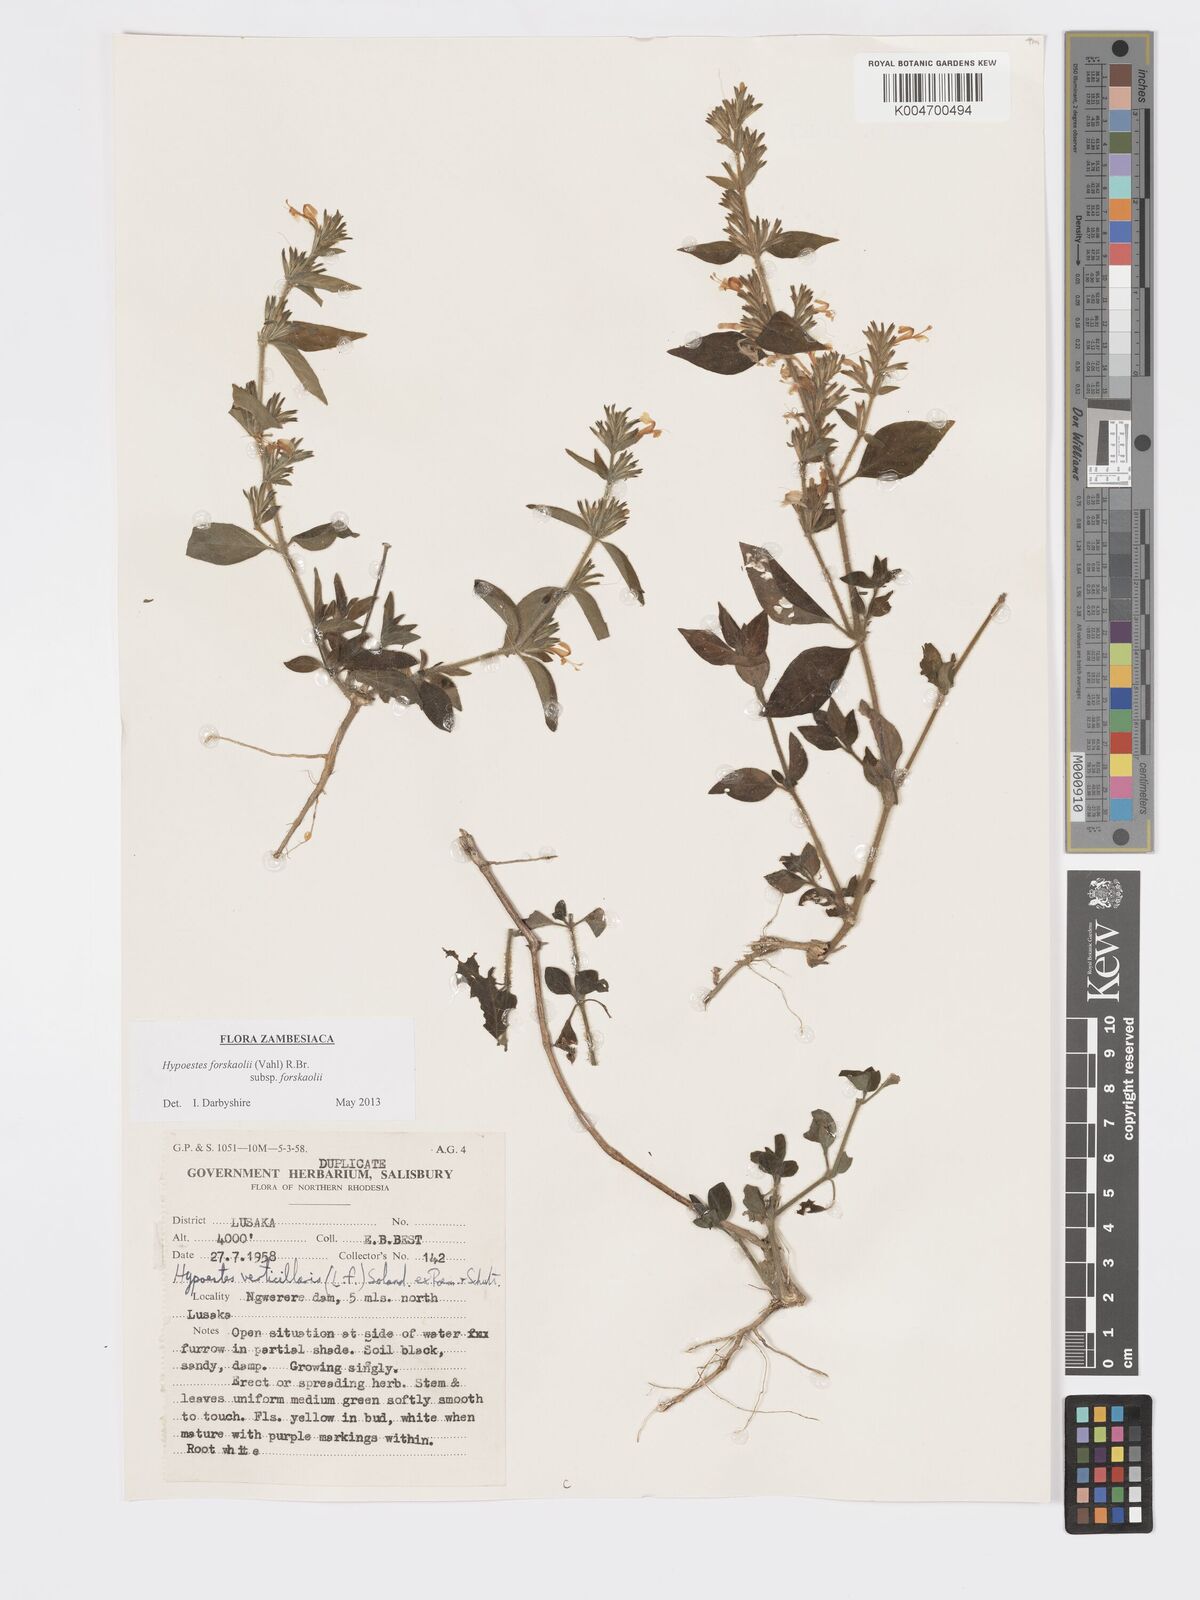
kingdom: Plantae
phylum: Tracheophyta
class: Magnoliopsida
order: Lamiales
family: Acanthaceae
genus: Hypoestes
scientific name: Hypoestes forskaolii
